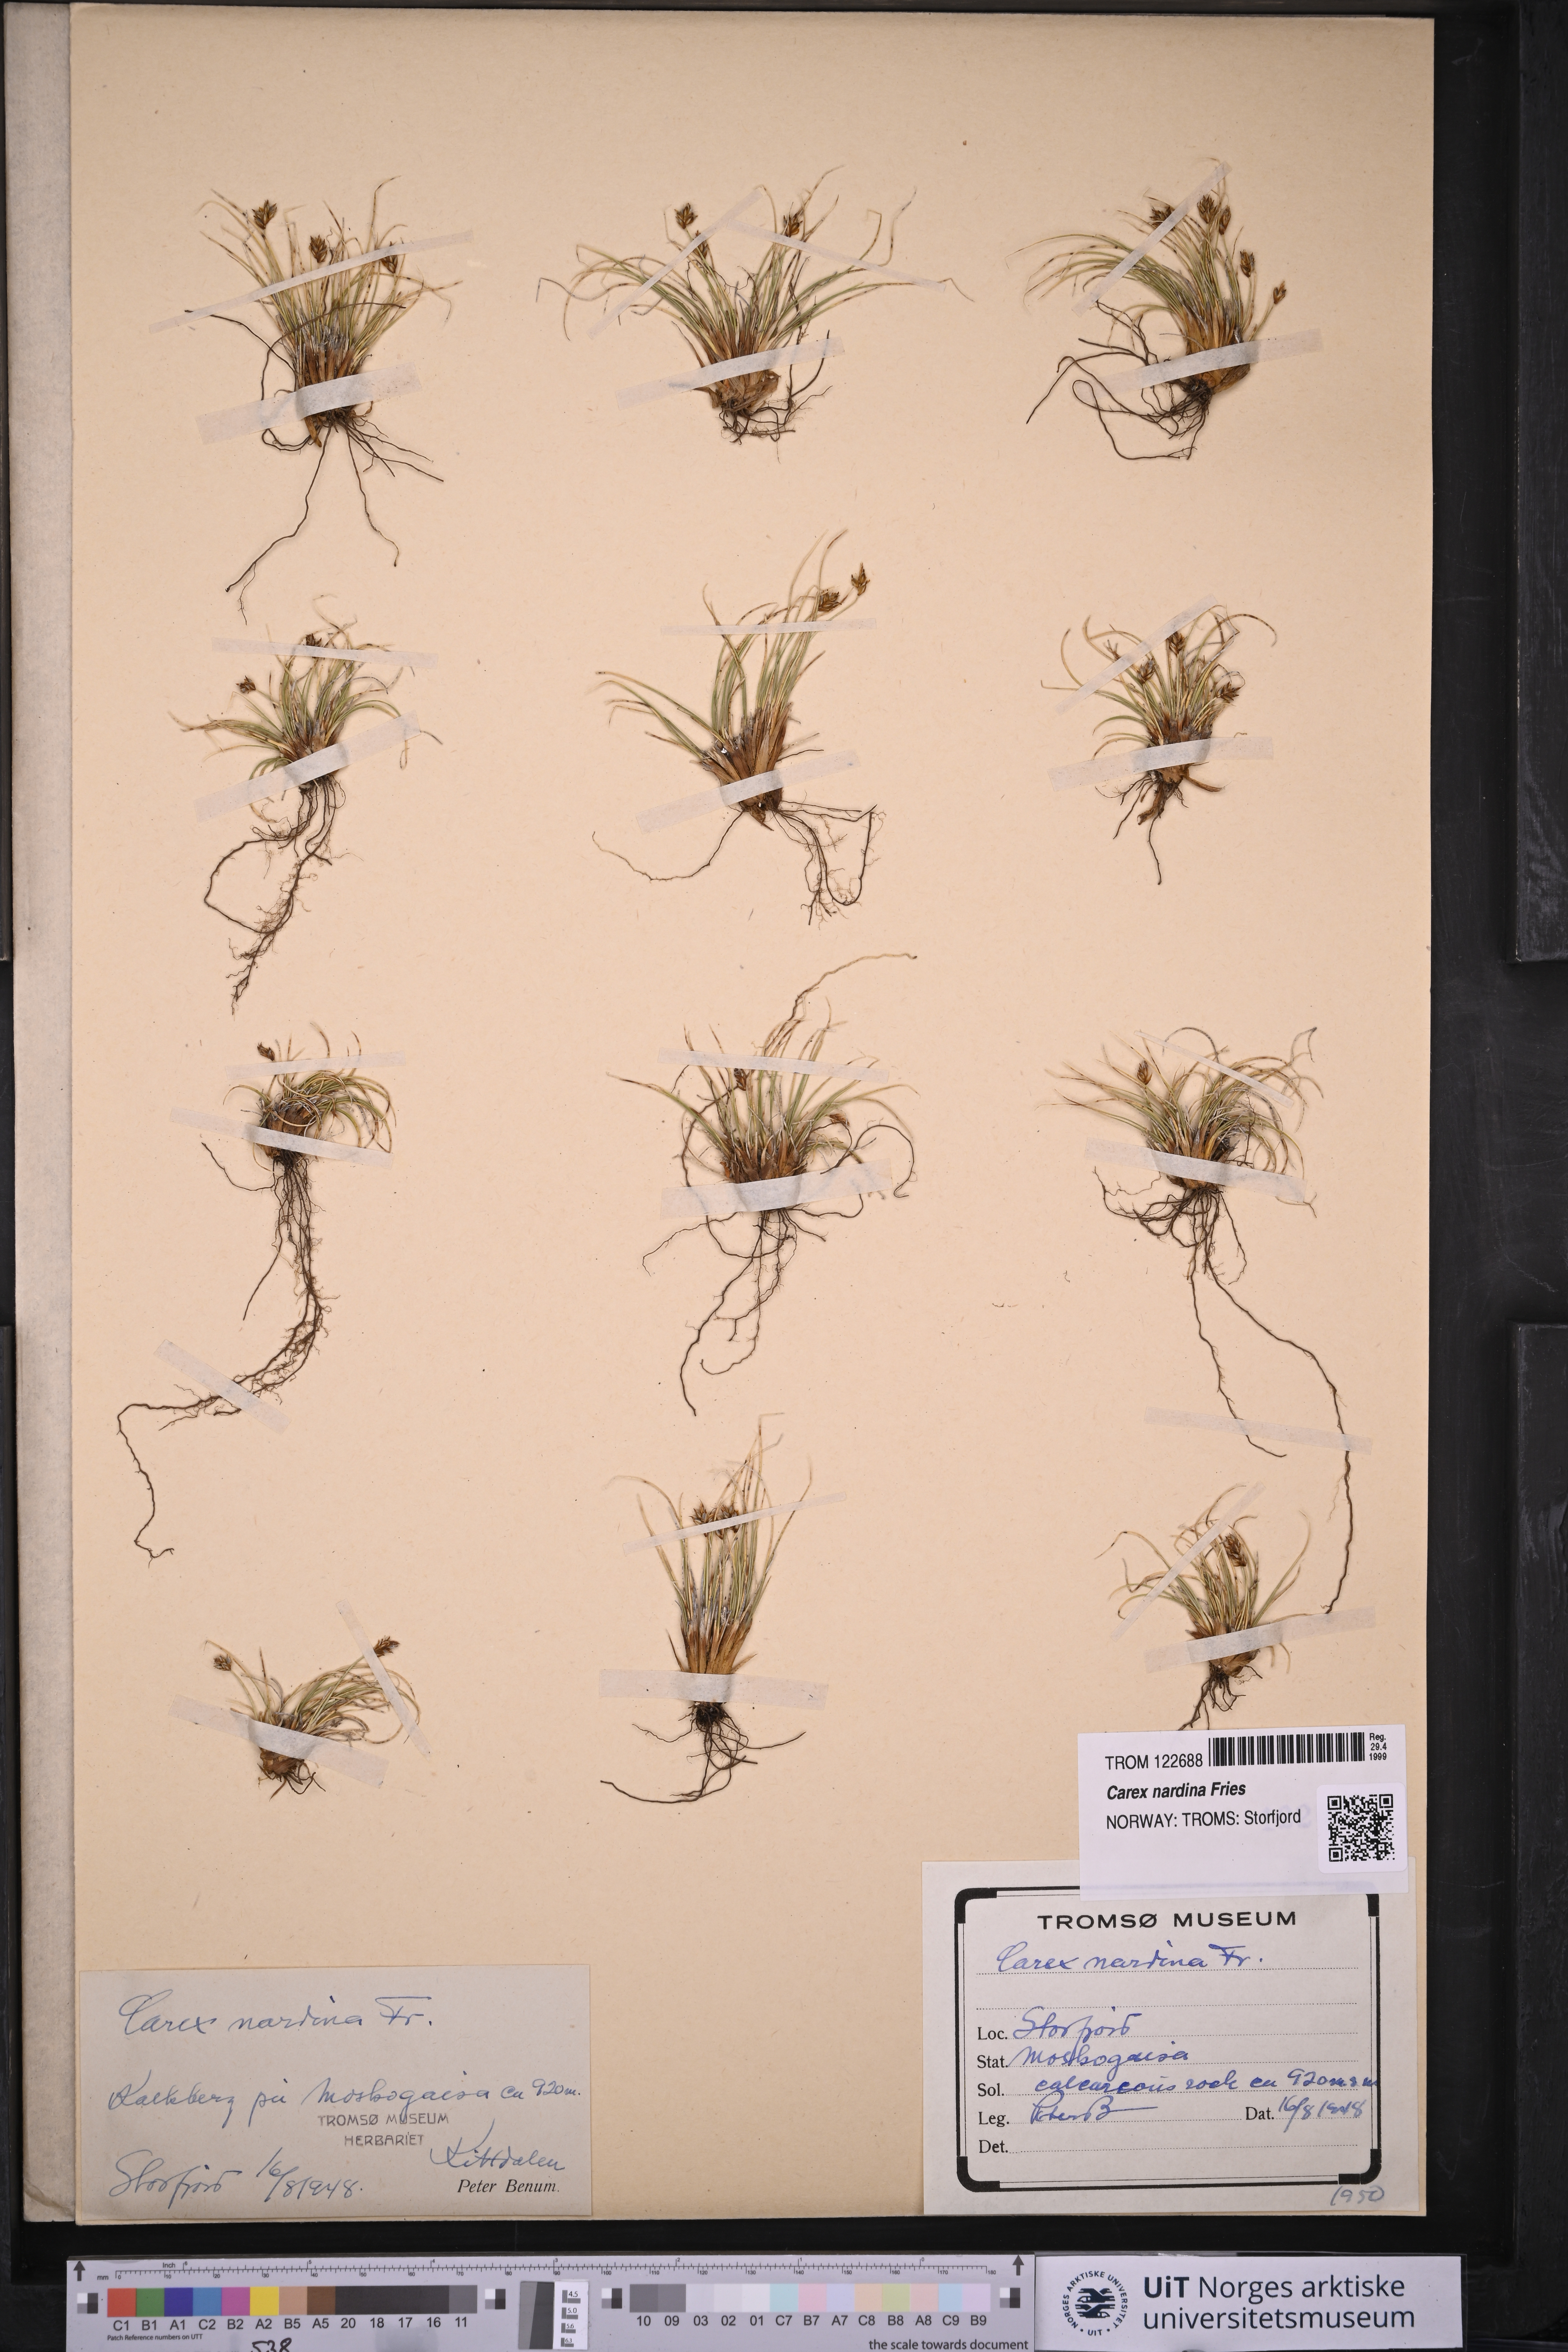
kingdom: Plantae
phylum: Tracheophyta
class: Liliopsida
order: Poales
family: Cyperaceae
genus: Carex
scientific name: Carex nardina
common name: Nard sedge
